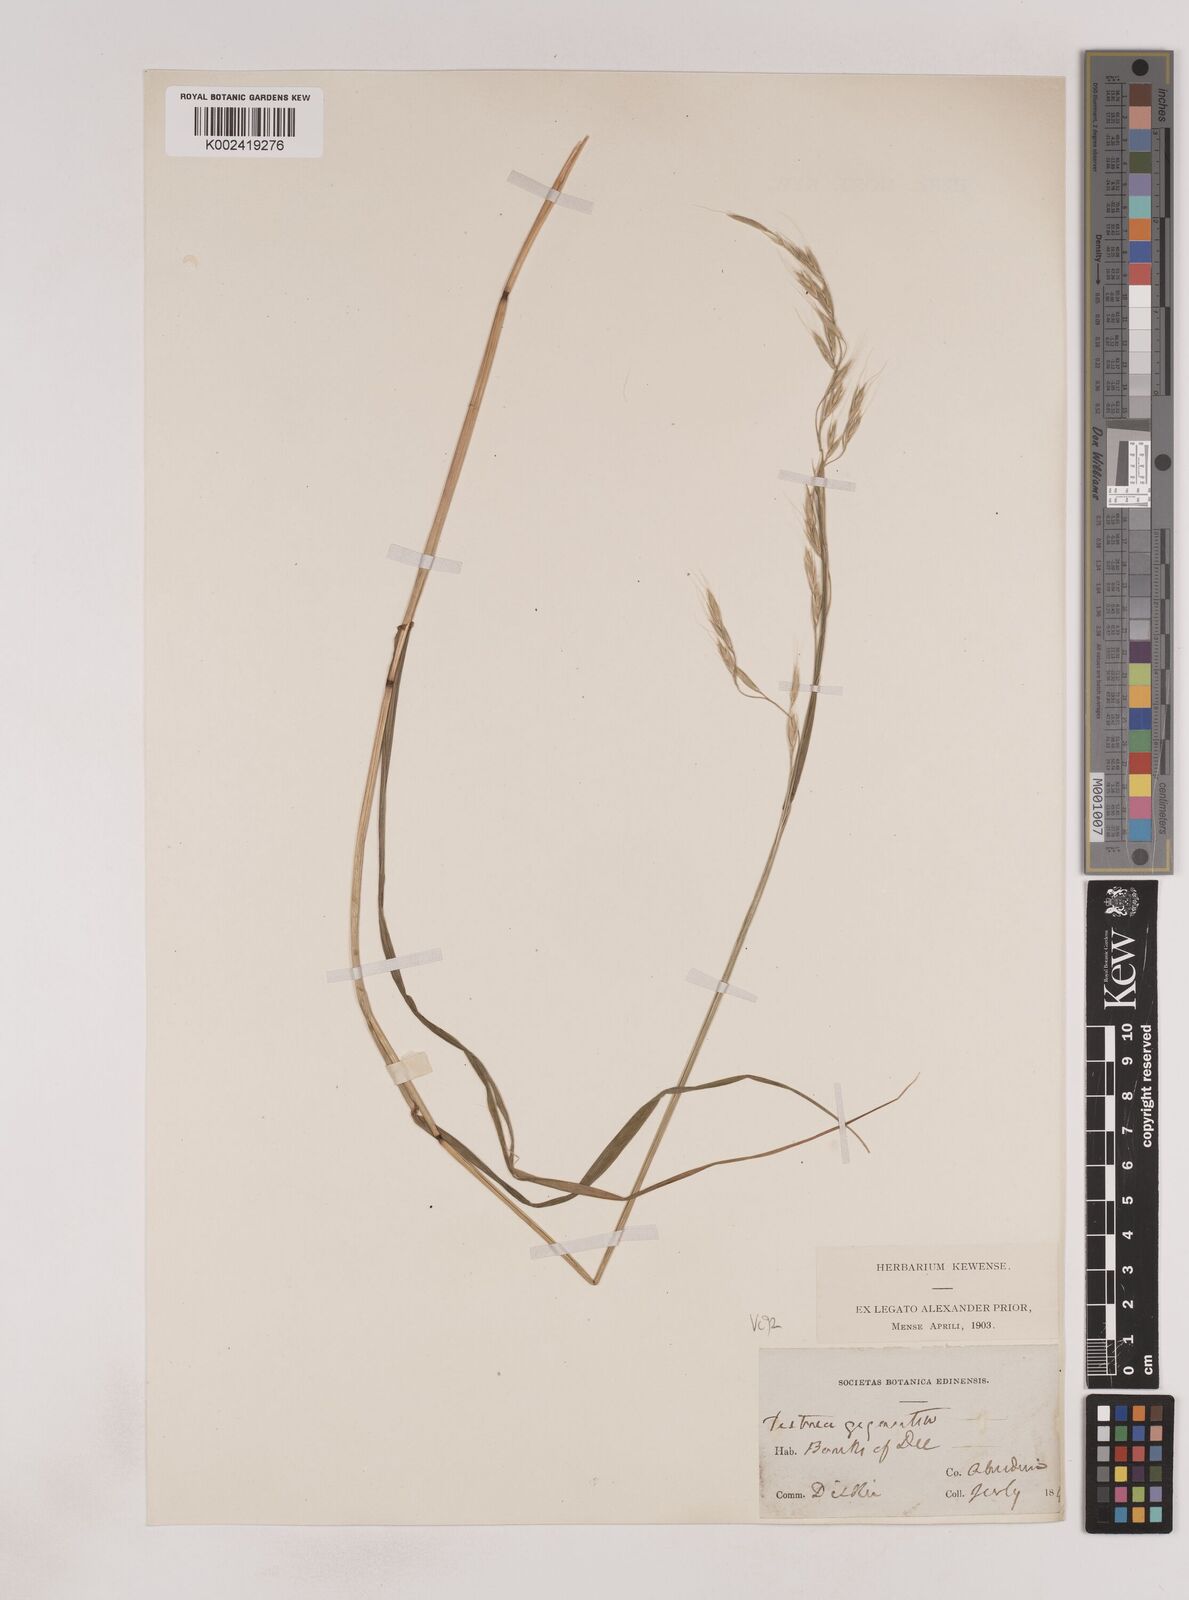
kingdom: Plantae
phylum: Tracheophyta
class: Liliopsida
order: Poales
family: Poaceae
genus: Patzkea
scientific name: Patzkea paniculata
